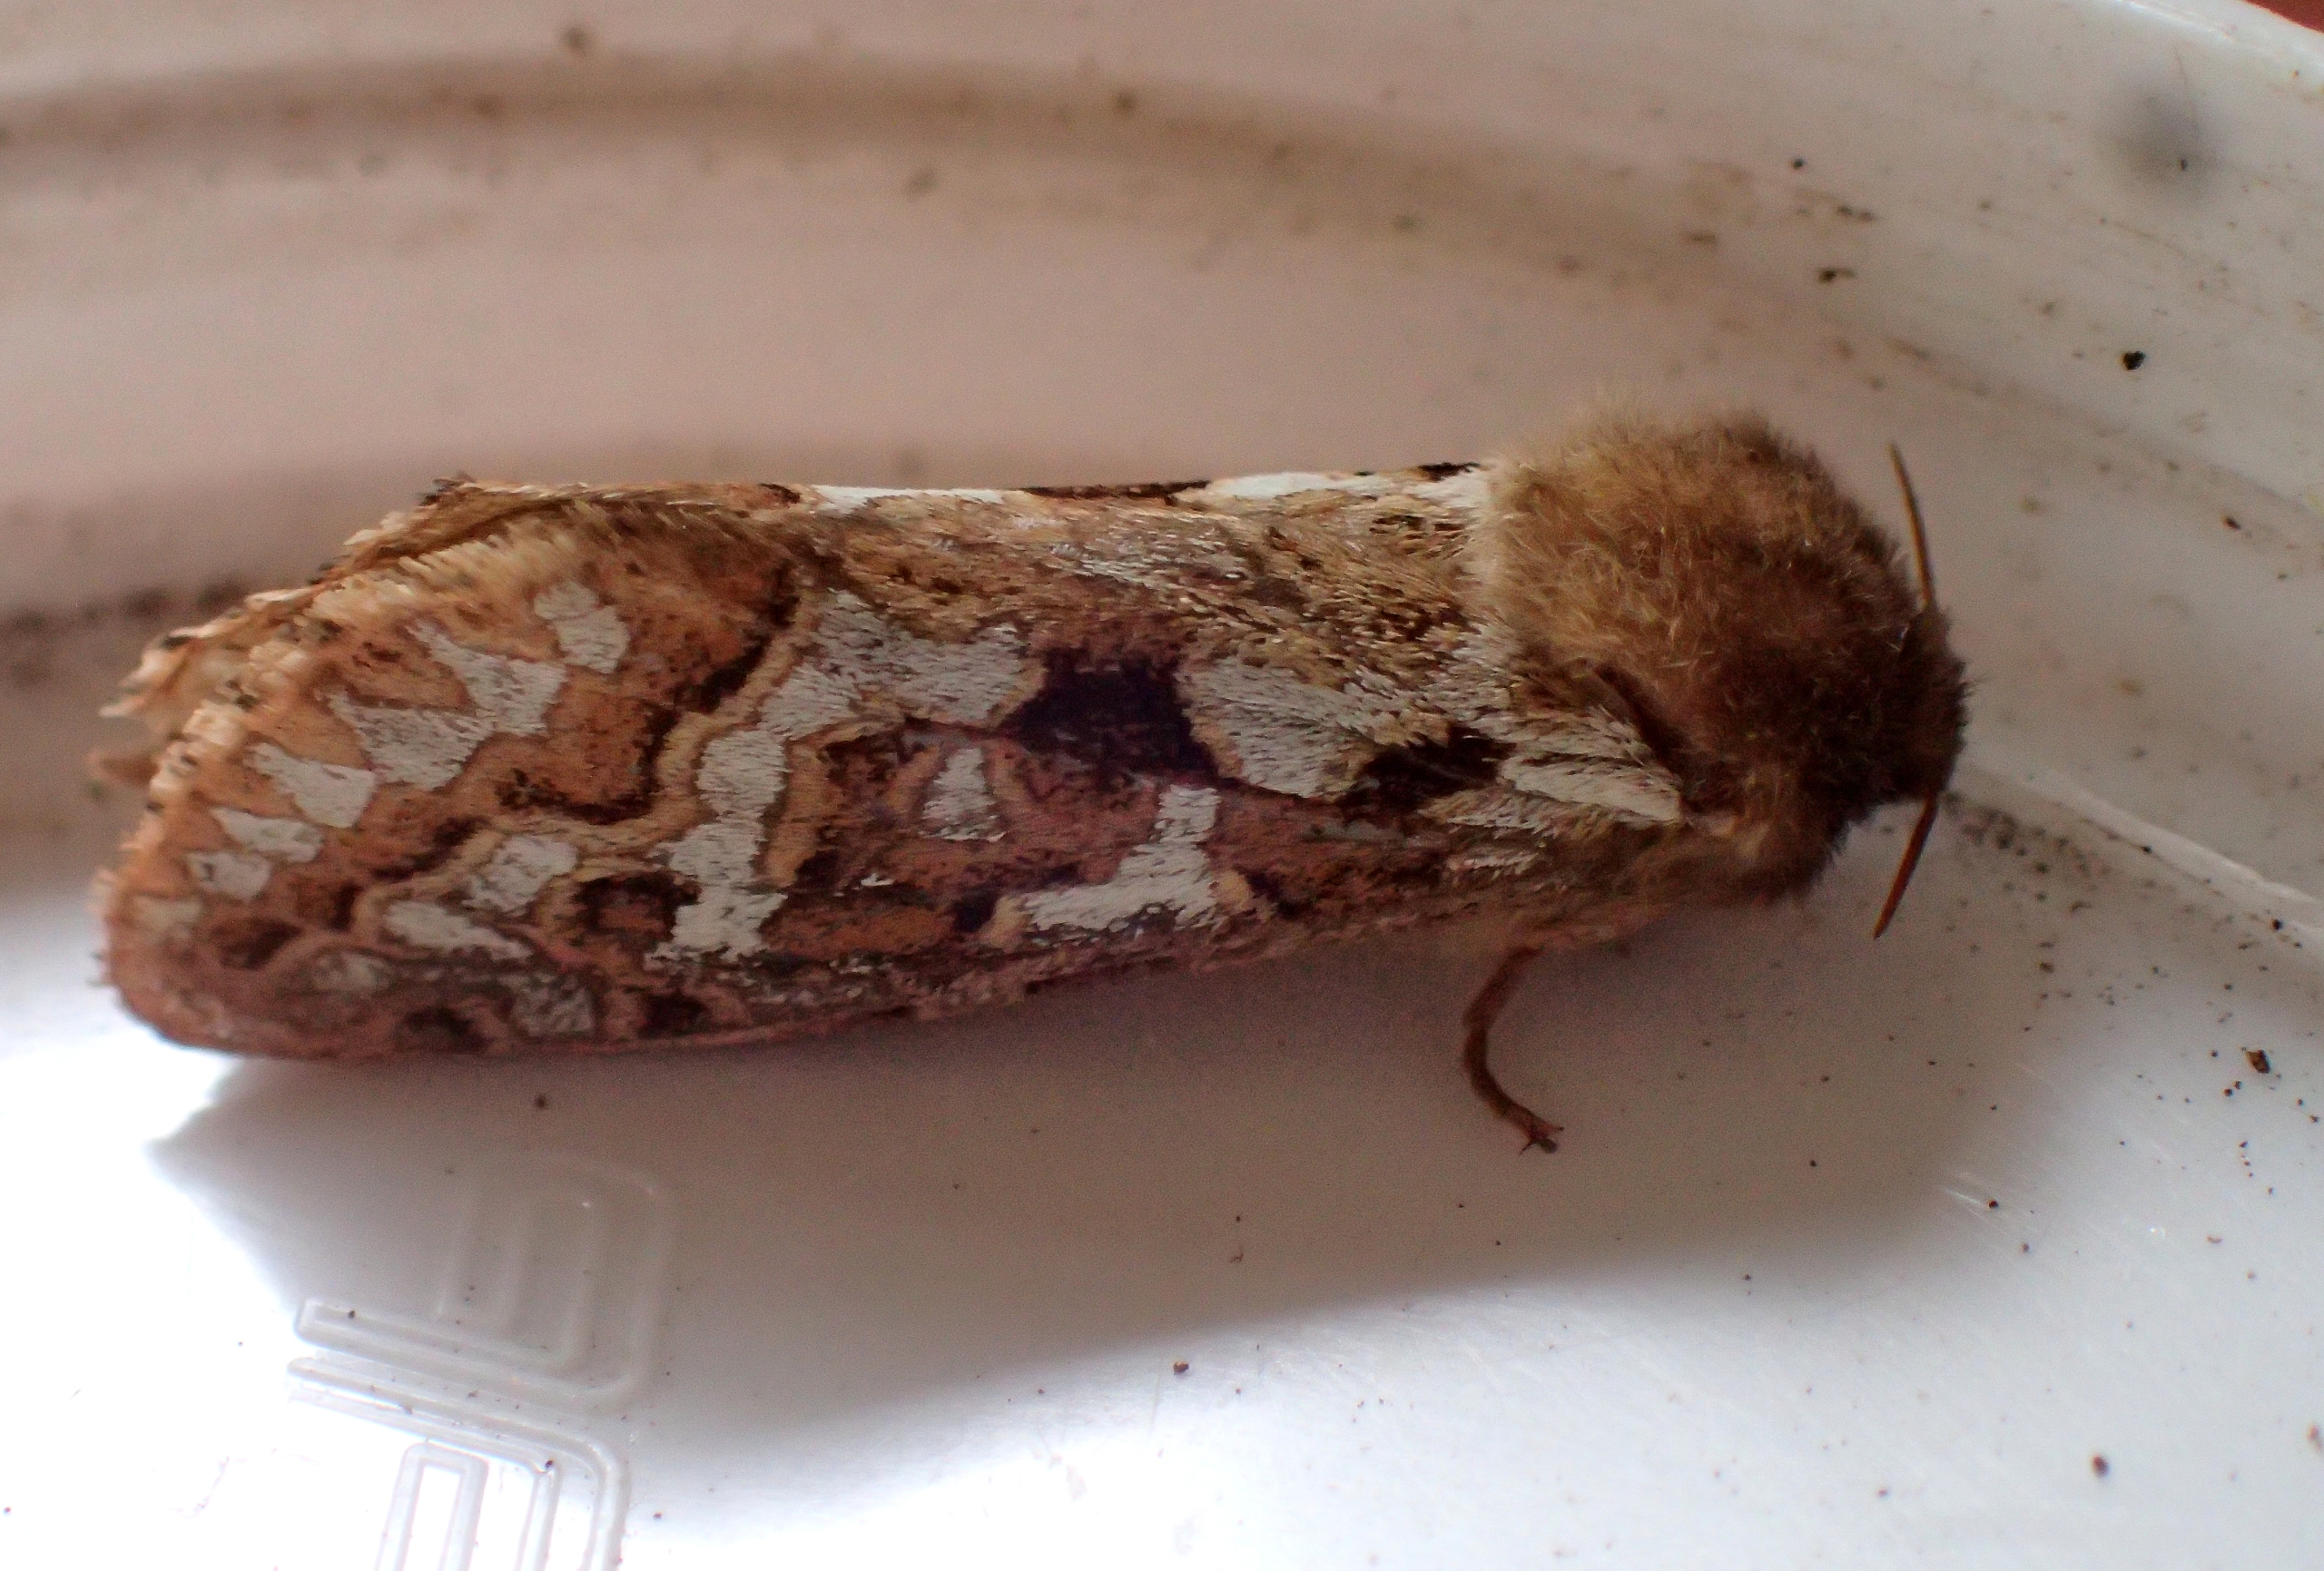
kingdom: Animalia
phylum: Arthropoda
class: Insecta
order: Lepidoptera
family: Hepialidae
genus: Korscheltellus
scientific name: Korscheltellus fusconebulosus
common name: Ørnebregnerodæder
